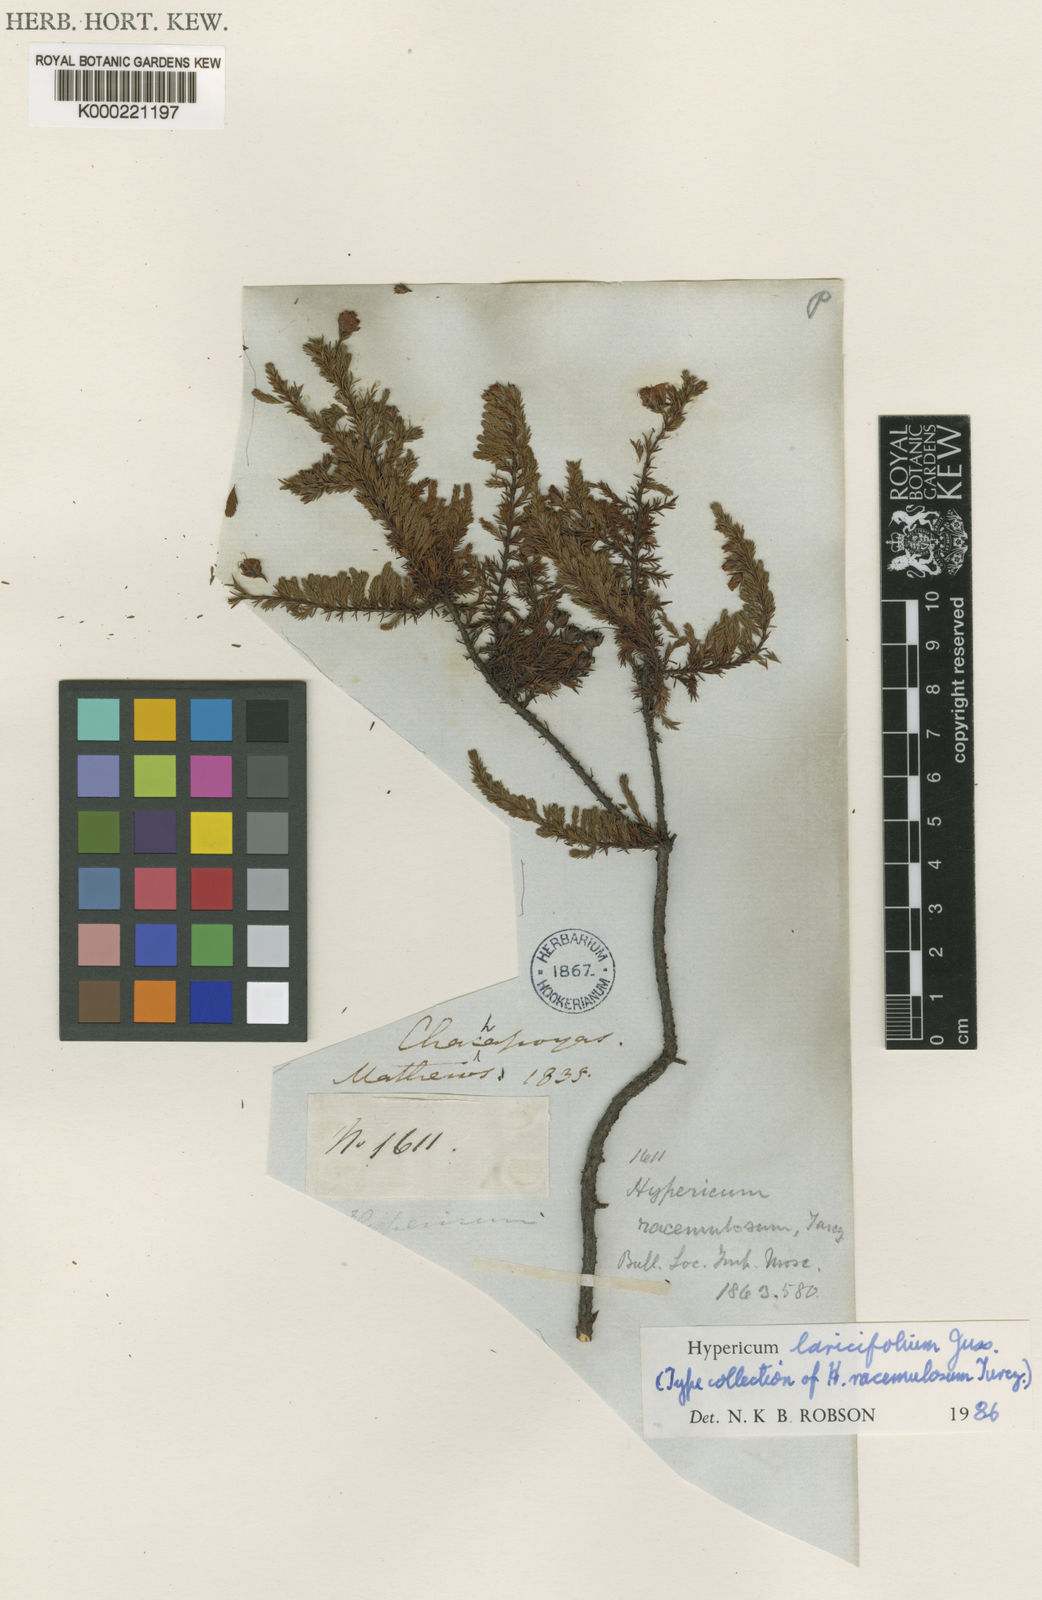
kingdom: Plantae
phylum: Tracheophyta
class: Magnoliopsida
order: Malpighiales
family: Hypericaceae
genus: Hypericum
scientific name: Hypericum laricifolium
